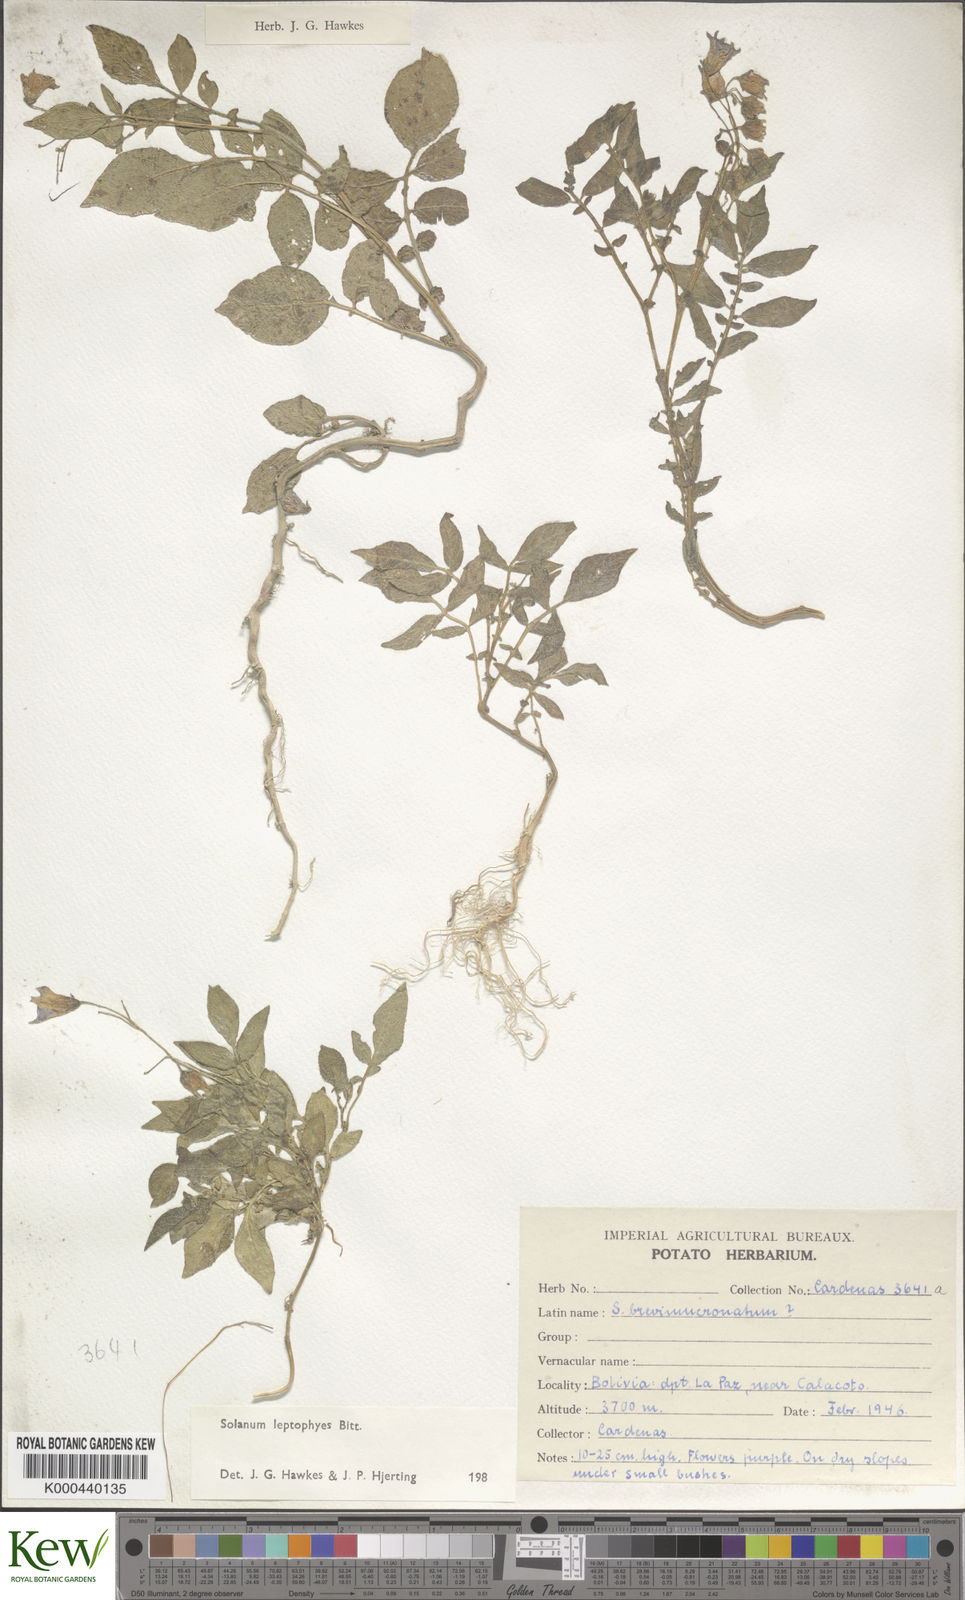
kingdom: Plantae
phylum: Tracheophyta
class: Magnoliopsida
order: Solanales
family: Solanaceae
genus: Solanum
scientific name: Solanum brevicaule
